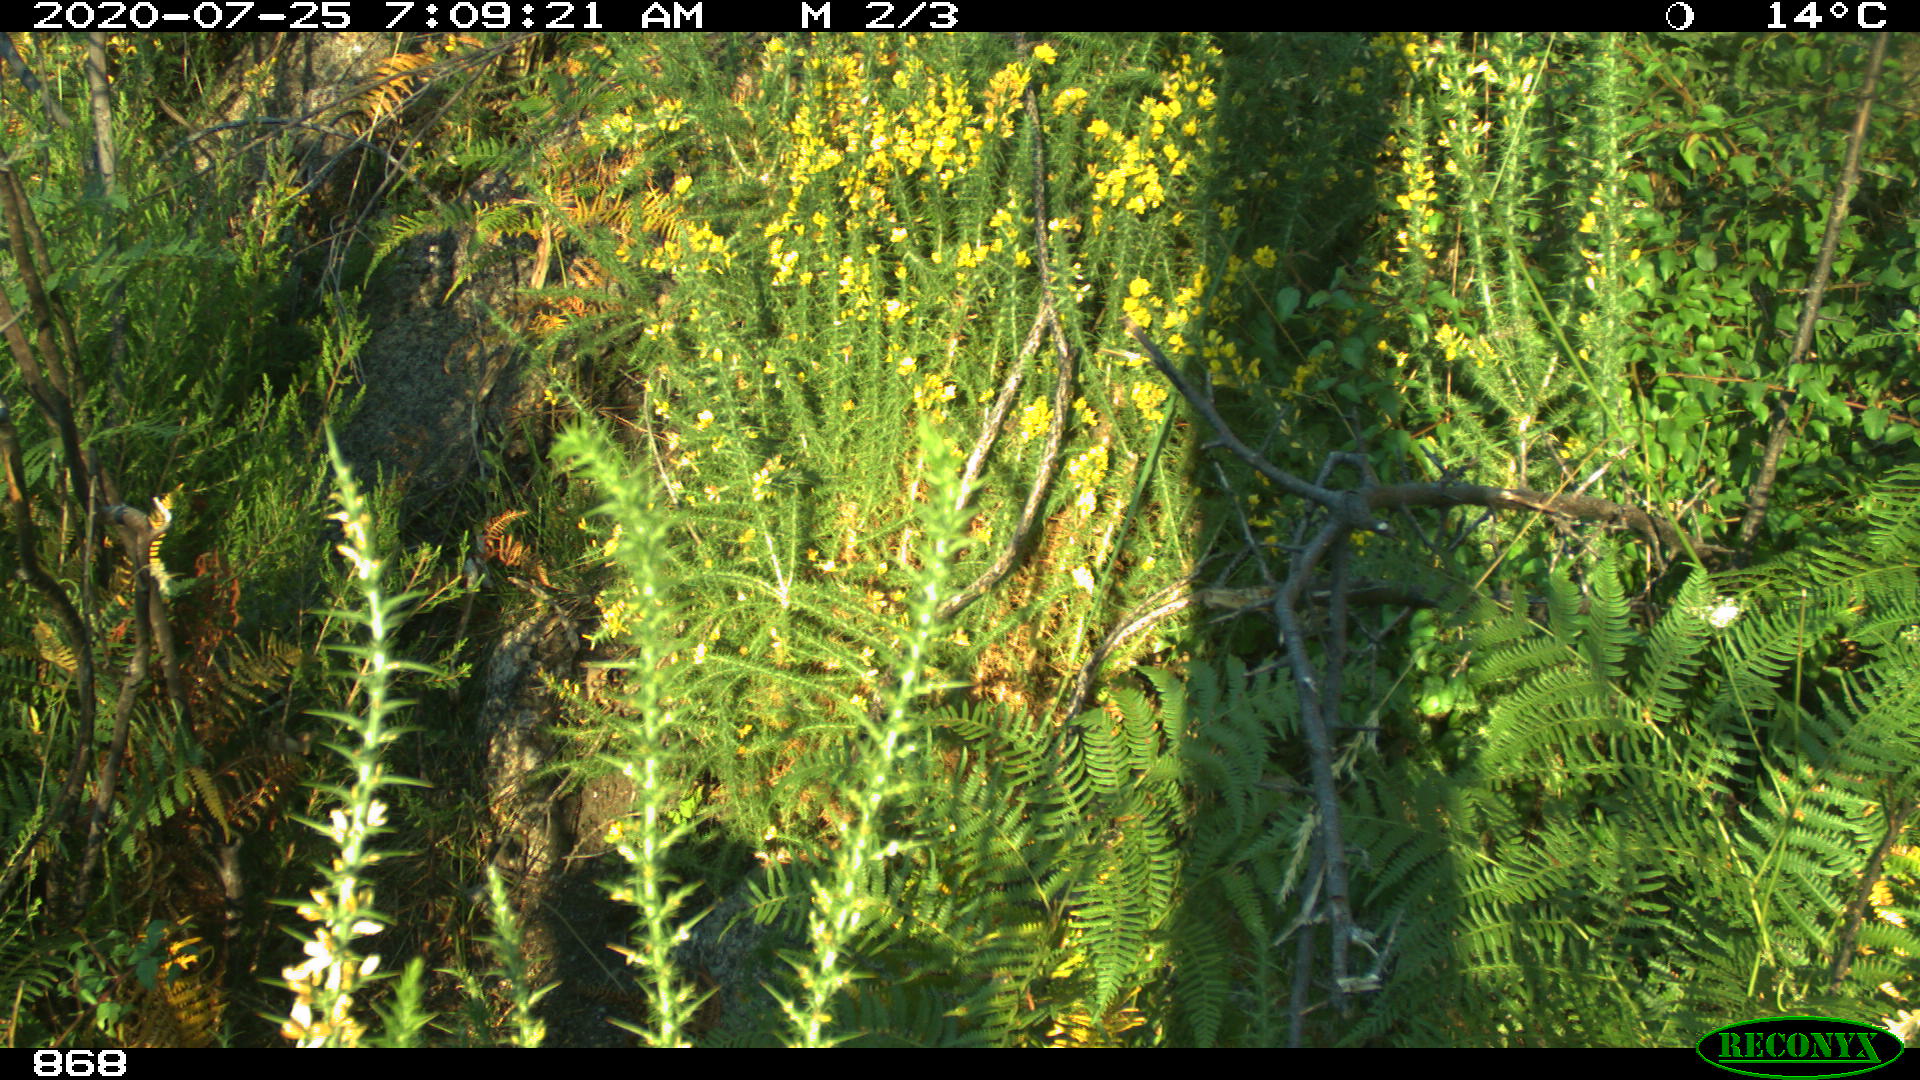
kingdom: Animalia
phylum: Chordata
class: Mammalia
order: Artiodactyla
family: Cervidae
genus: Capreolus
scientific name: Capreolus capreolus
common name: Western roe deer
